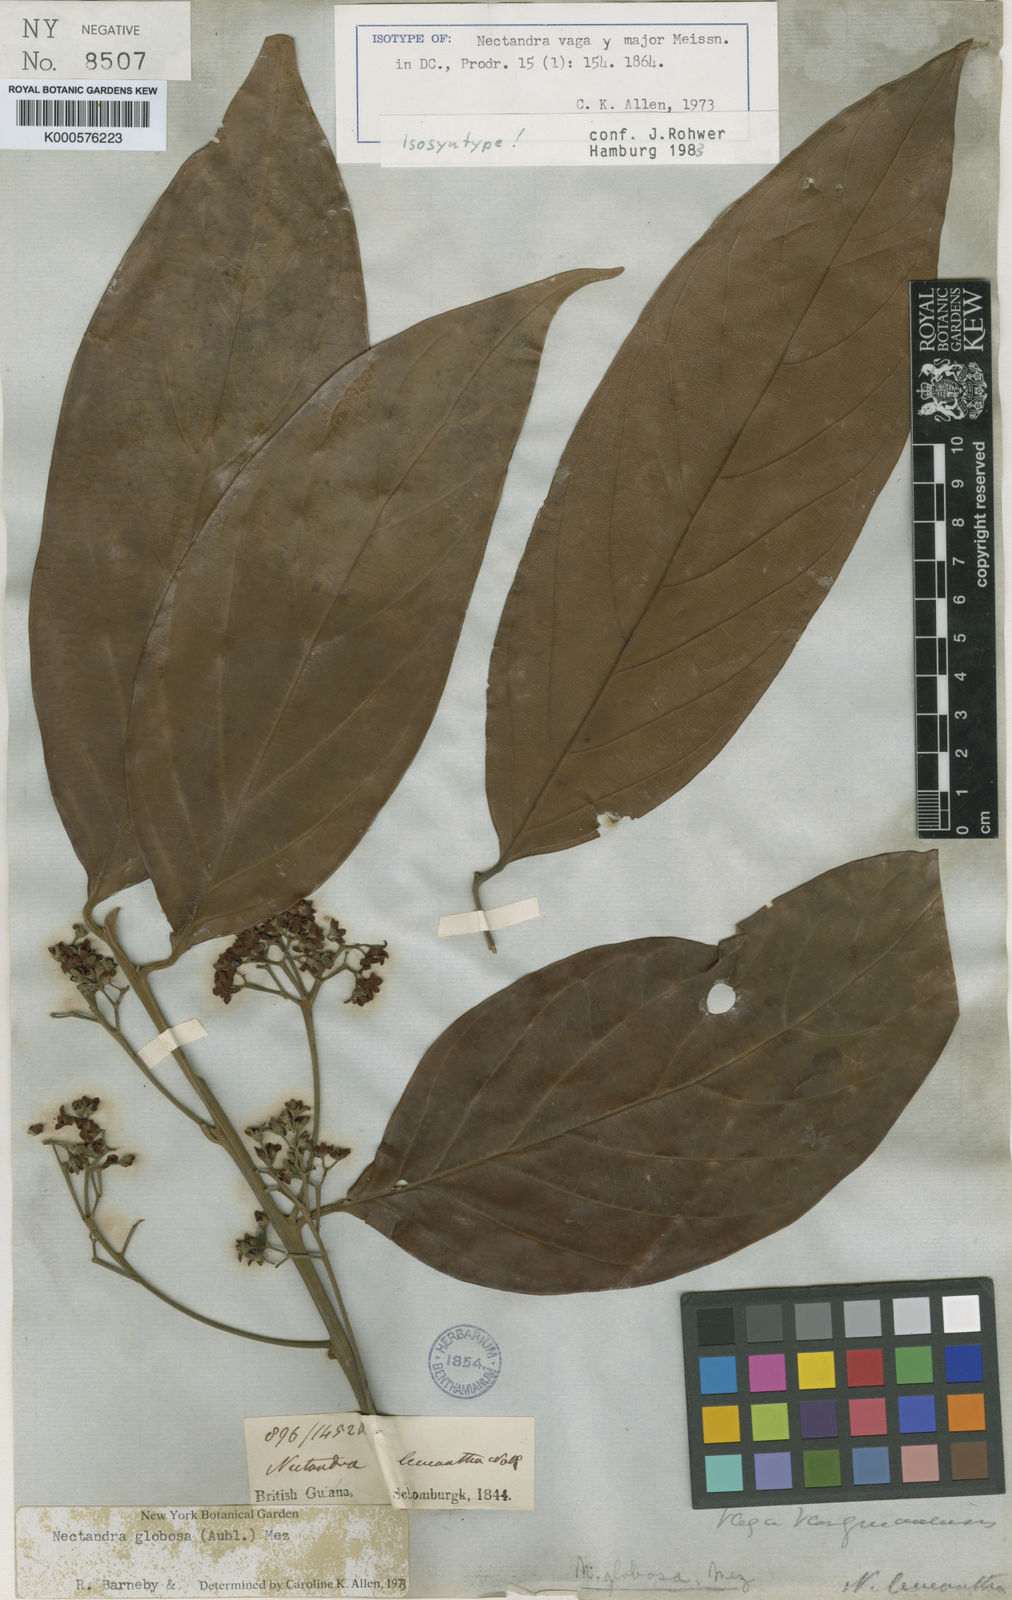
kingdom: Plantae
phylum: Tracheophyta
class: Magnoliopsida
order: Laurales
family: Lauraceae
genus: Nectandra
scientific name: Nectandra globosa
